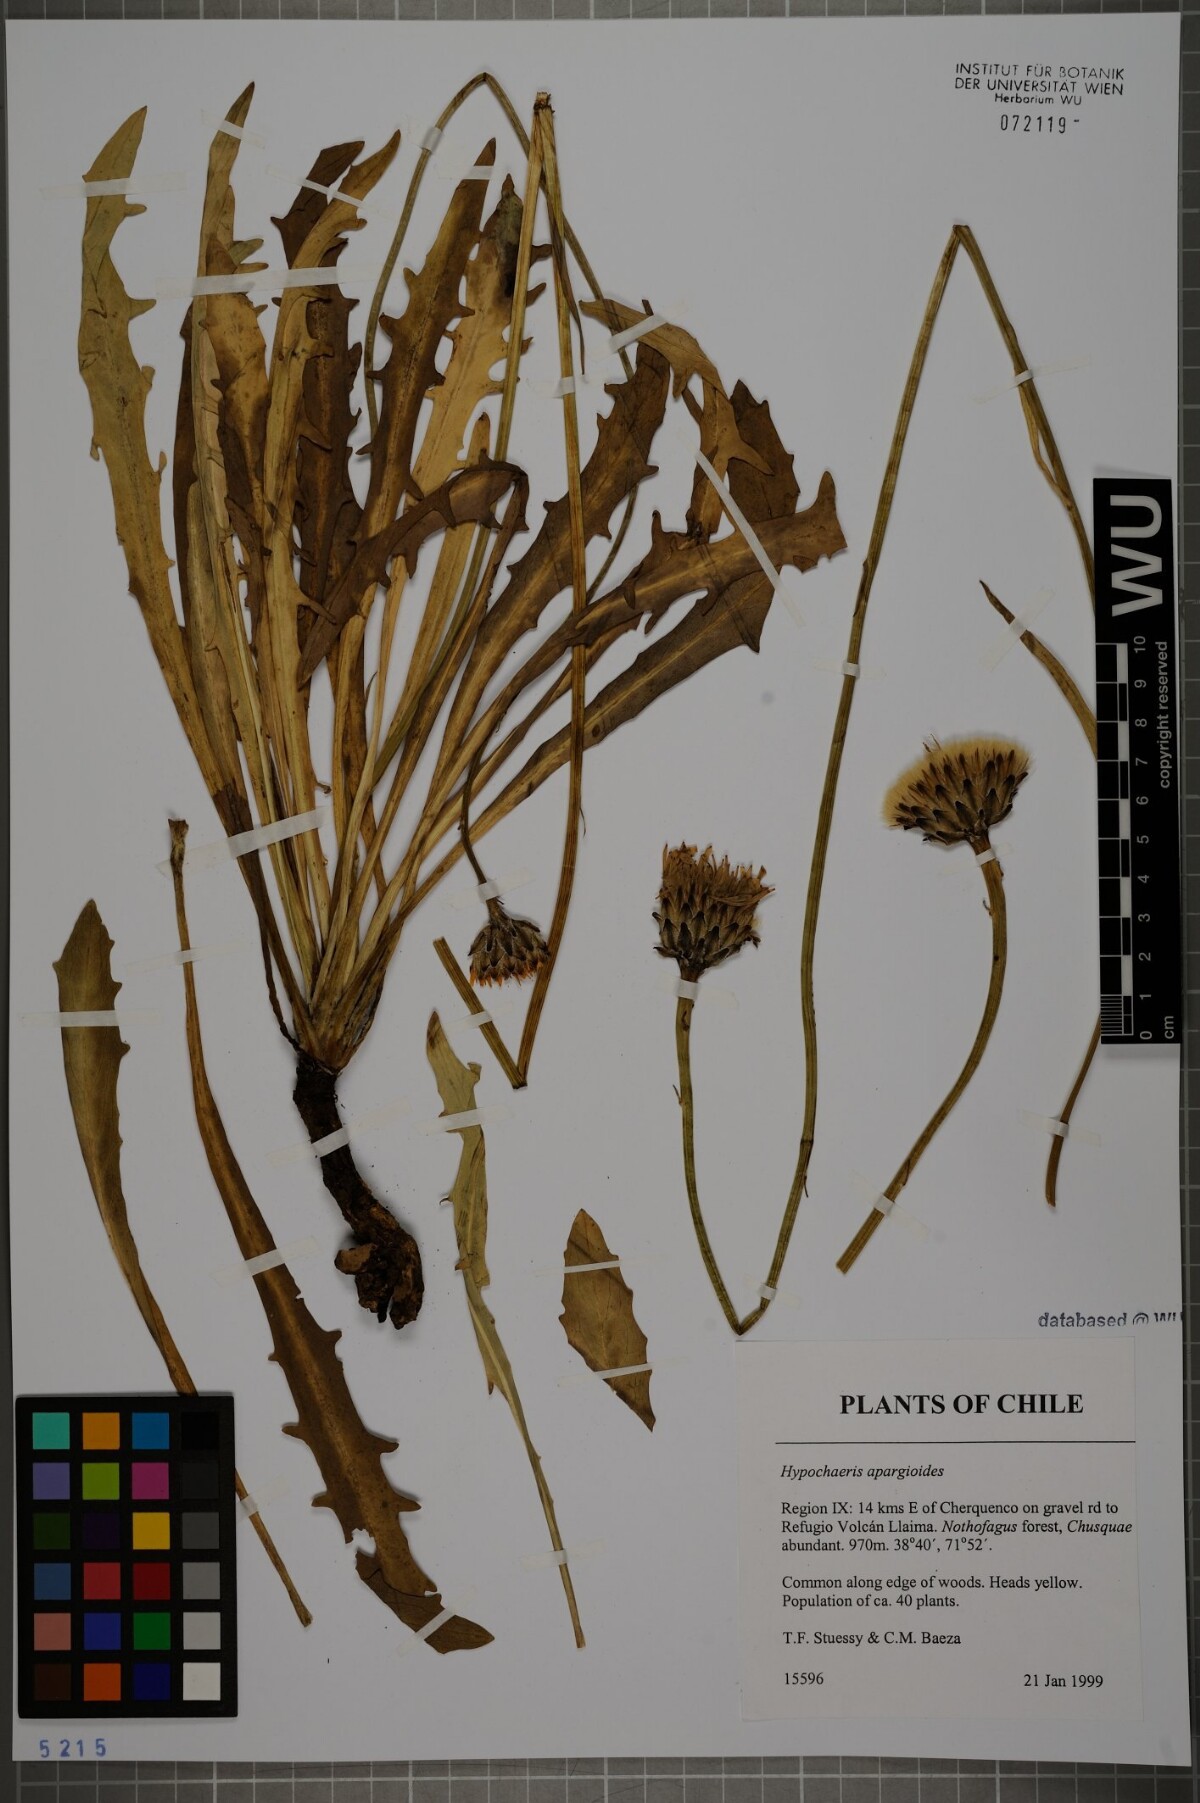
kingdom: Plantae
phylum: Tracheophyta
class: Magnoliopsida
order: Asterales
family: Asteraceae
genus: Hypochaeris
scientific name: Hypochaeris apargioides
